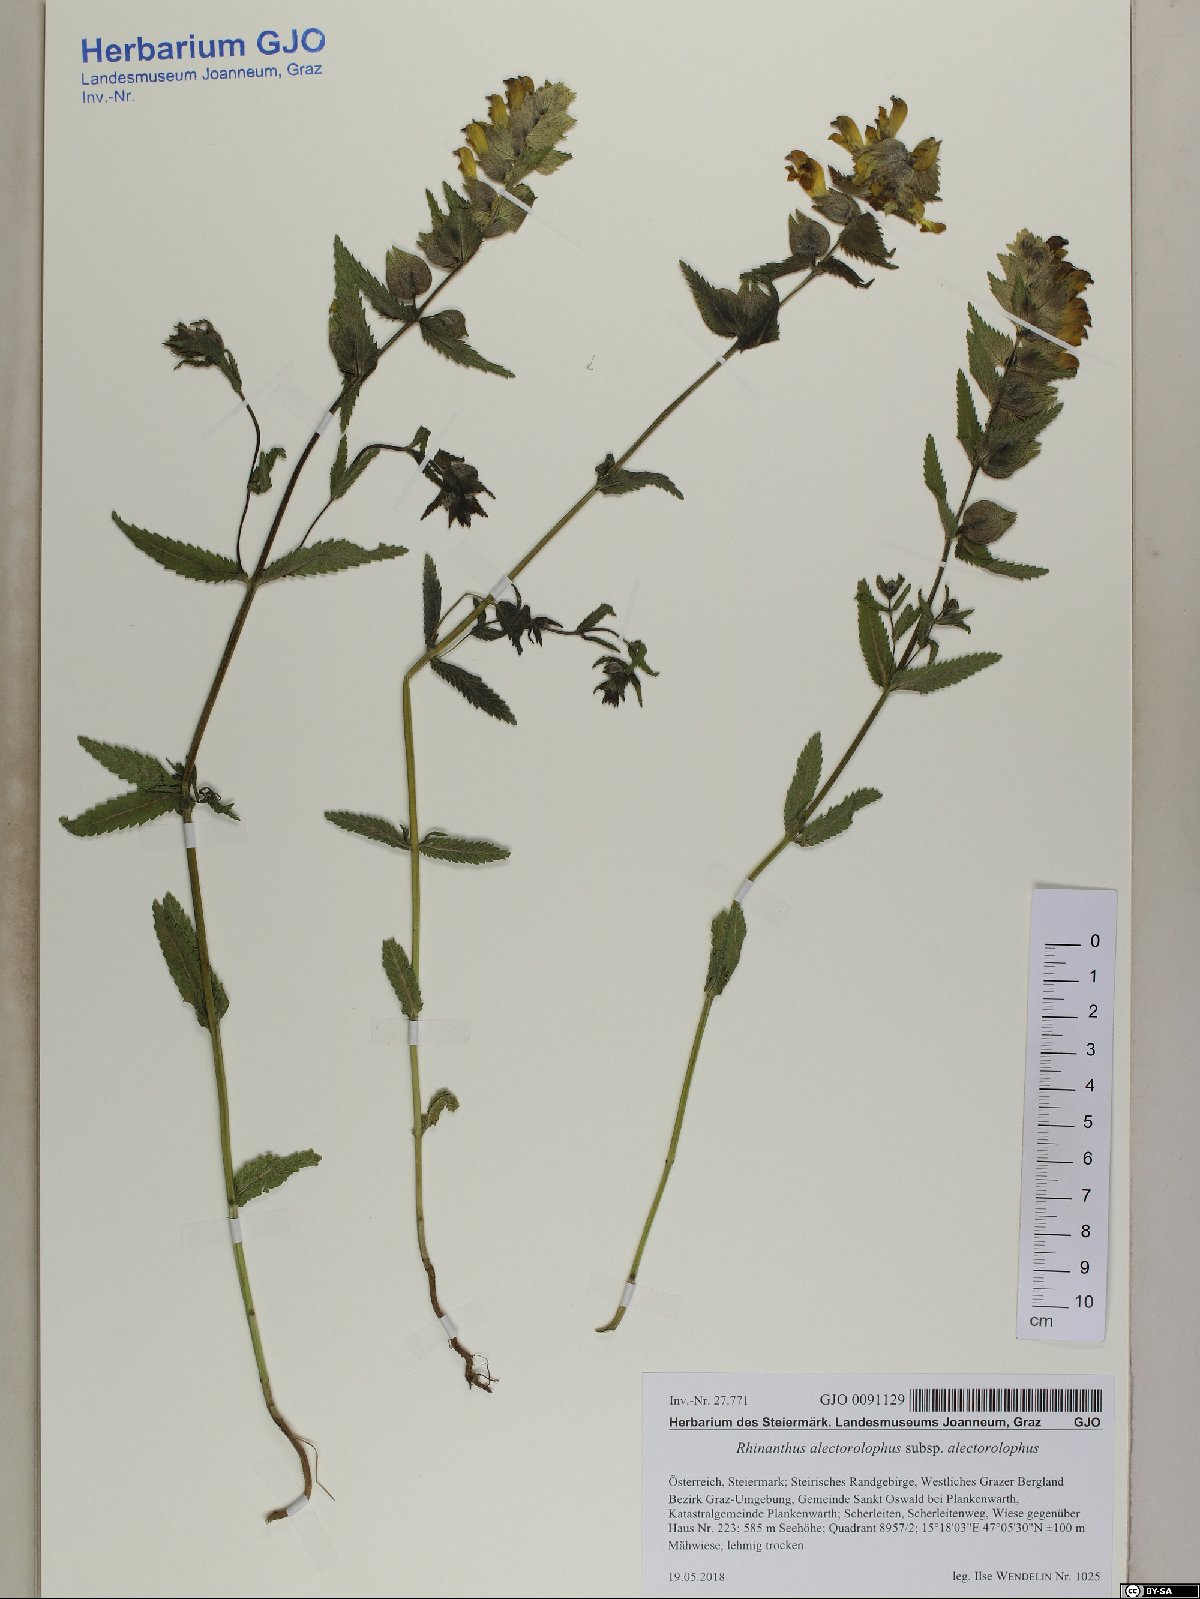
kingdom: Plantae
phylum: Tracheophyta
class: Magnoliopsida
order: Lamiales
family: Orobanchaceae
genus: Rhinanthus
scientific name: Rhinanthus alectorolophus
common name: Greater yellow-rattle
